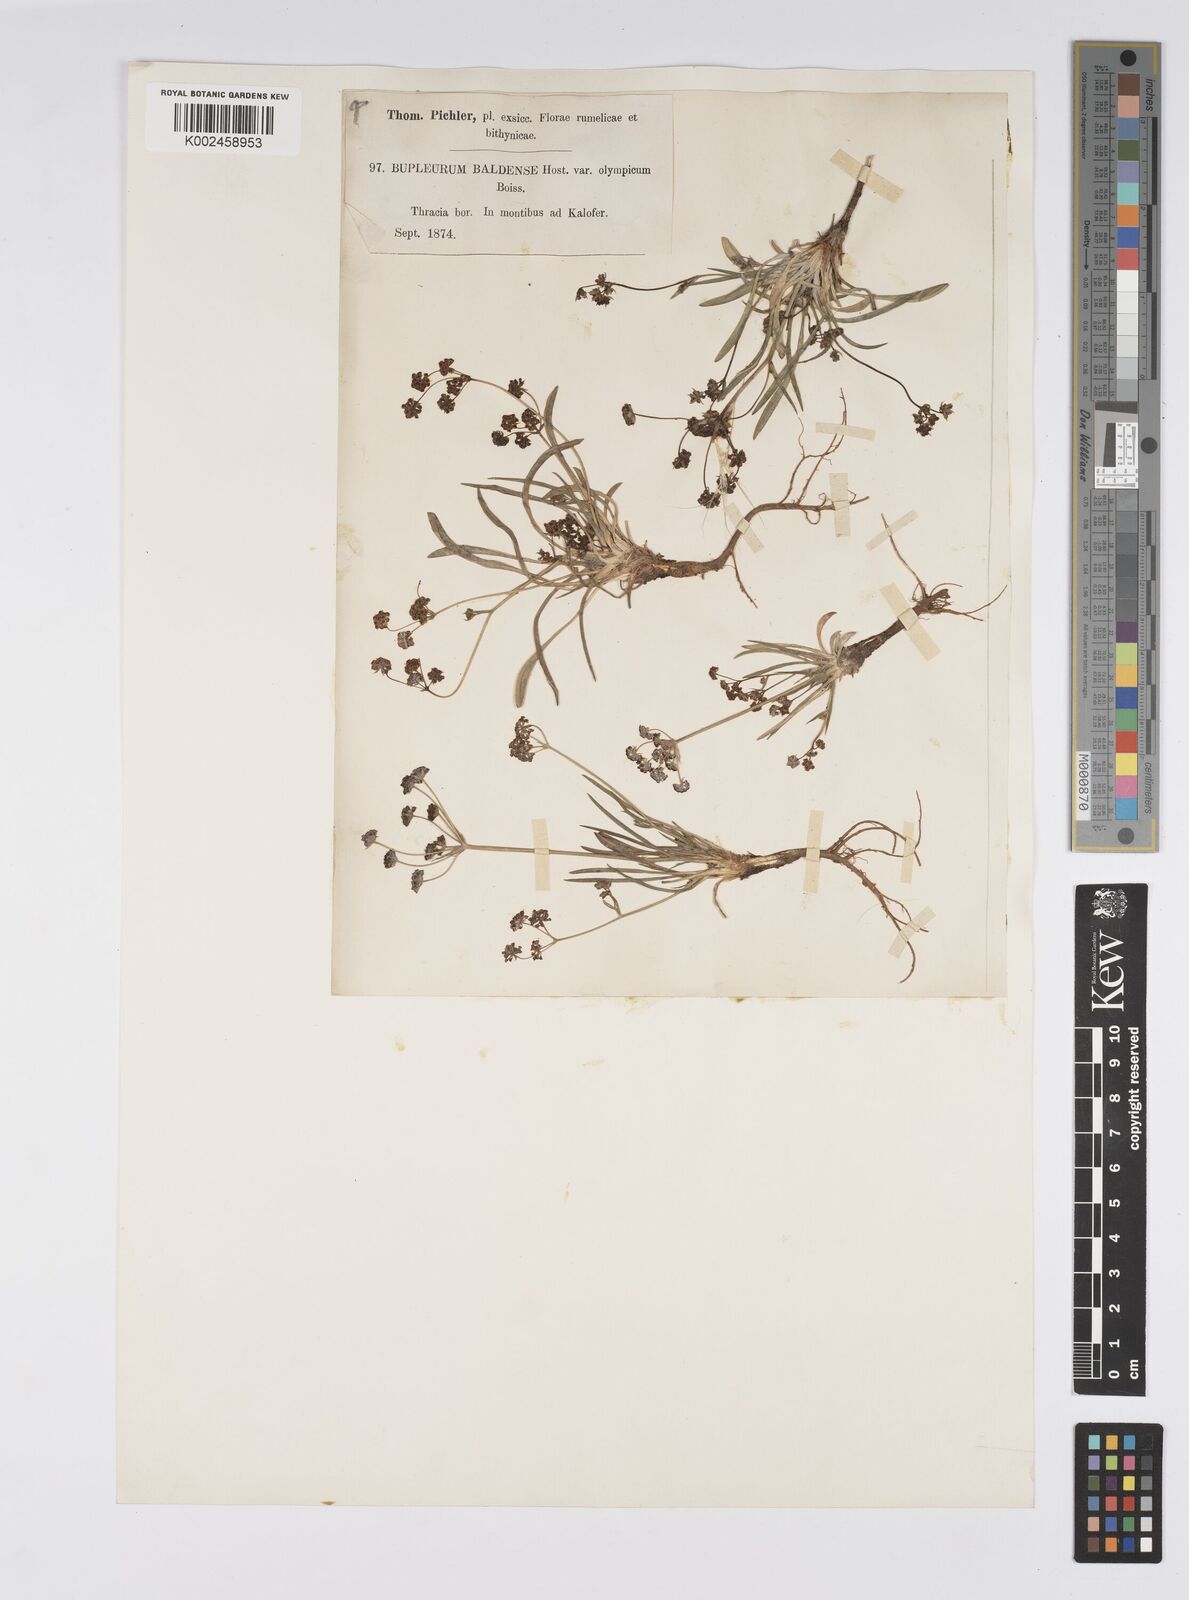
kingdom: Plantae
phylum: Tracheophyta
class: Magnoliopsida
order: Apiales
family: Apiaceae
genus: Bupleurum
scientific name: Bupleurum falcatum
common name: Sickle-leaved hare's-ear
